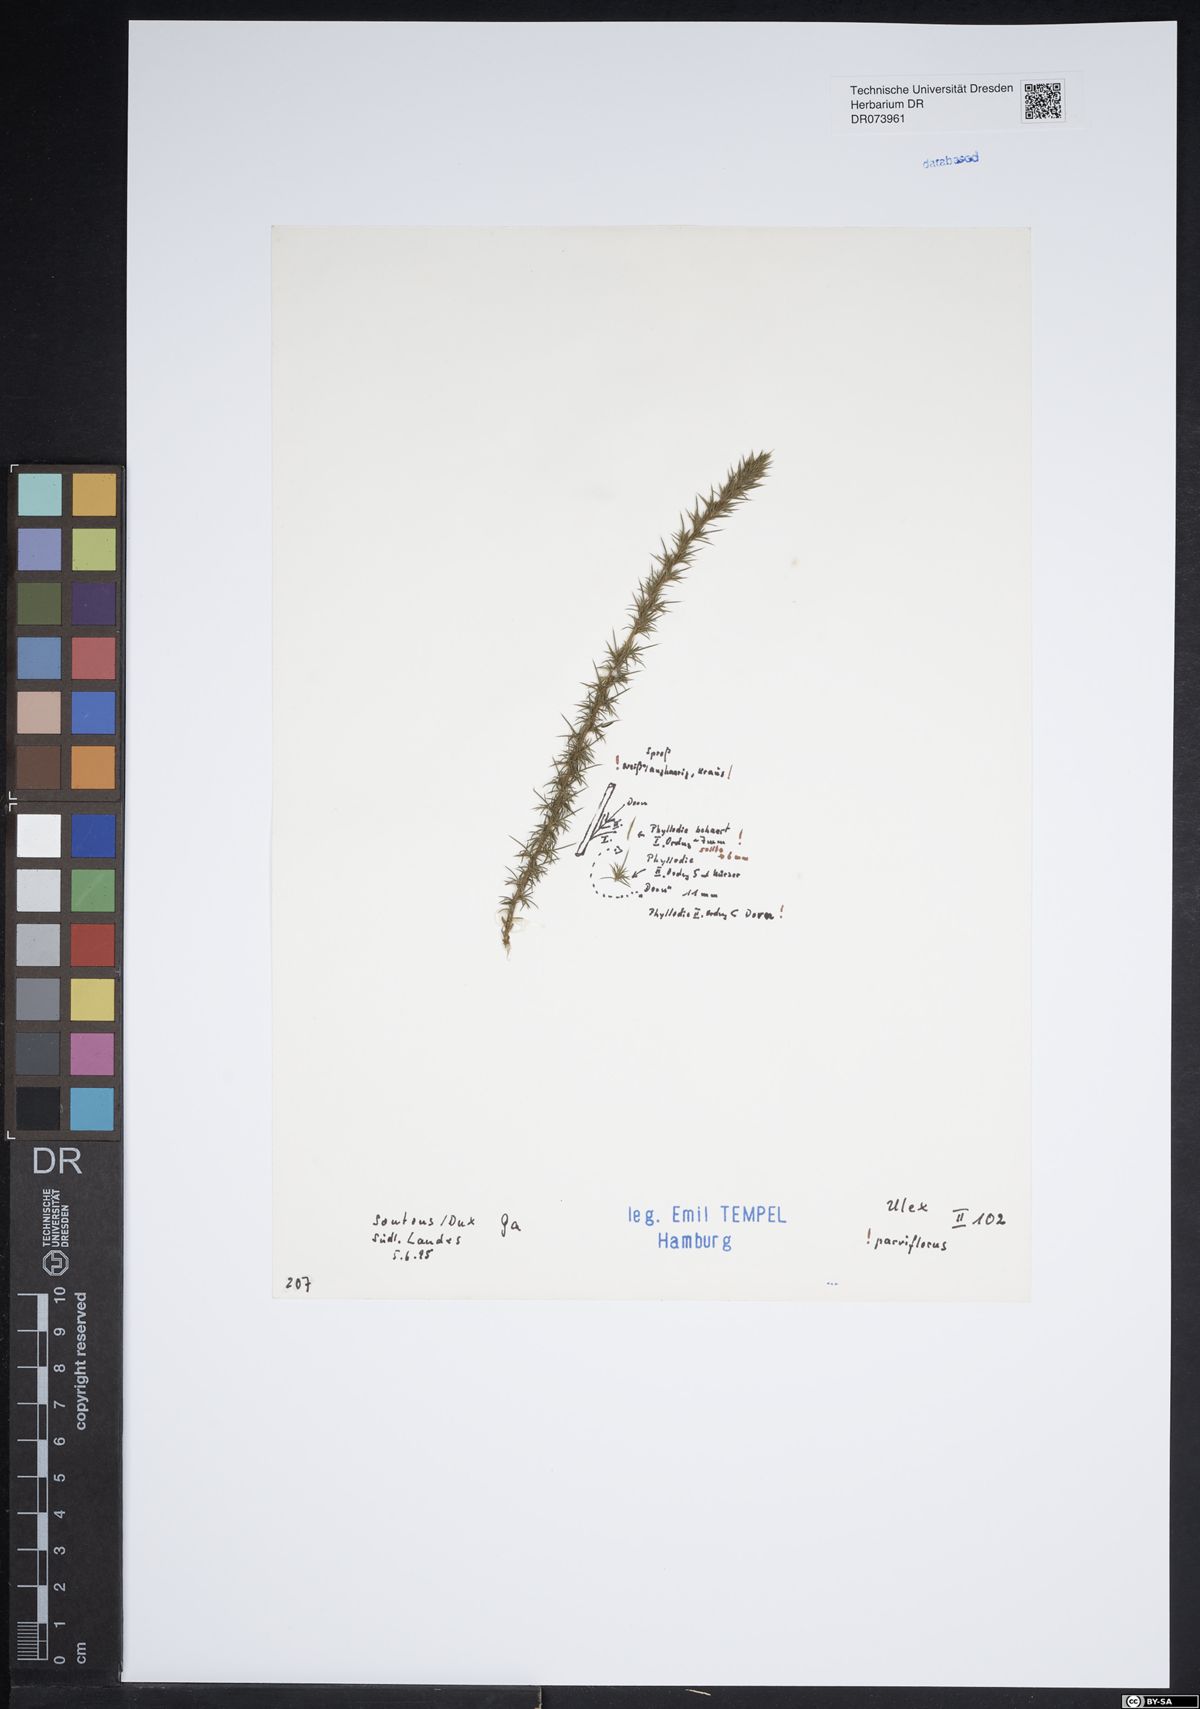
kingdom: Plantae
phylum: Tracheophyta
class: Magnoliopsida
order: Fabales
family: Fabaceae
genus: Ulex
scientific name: Ulex parviflorus
